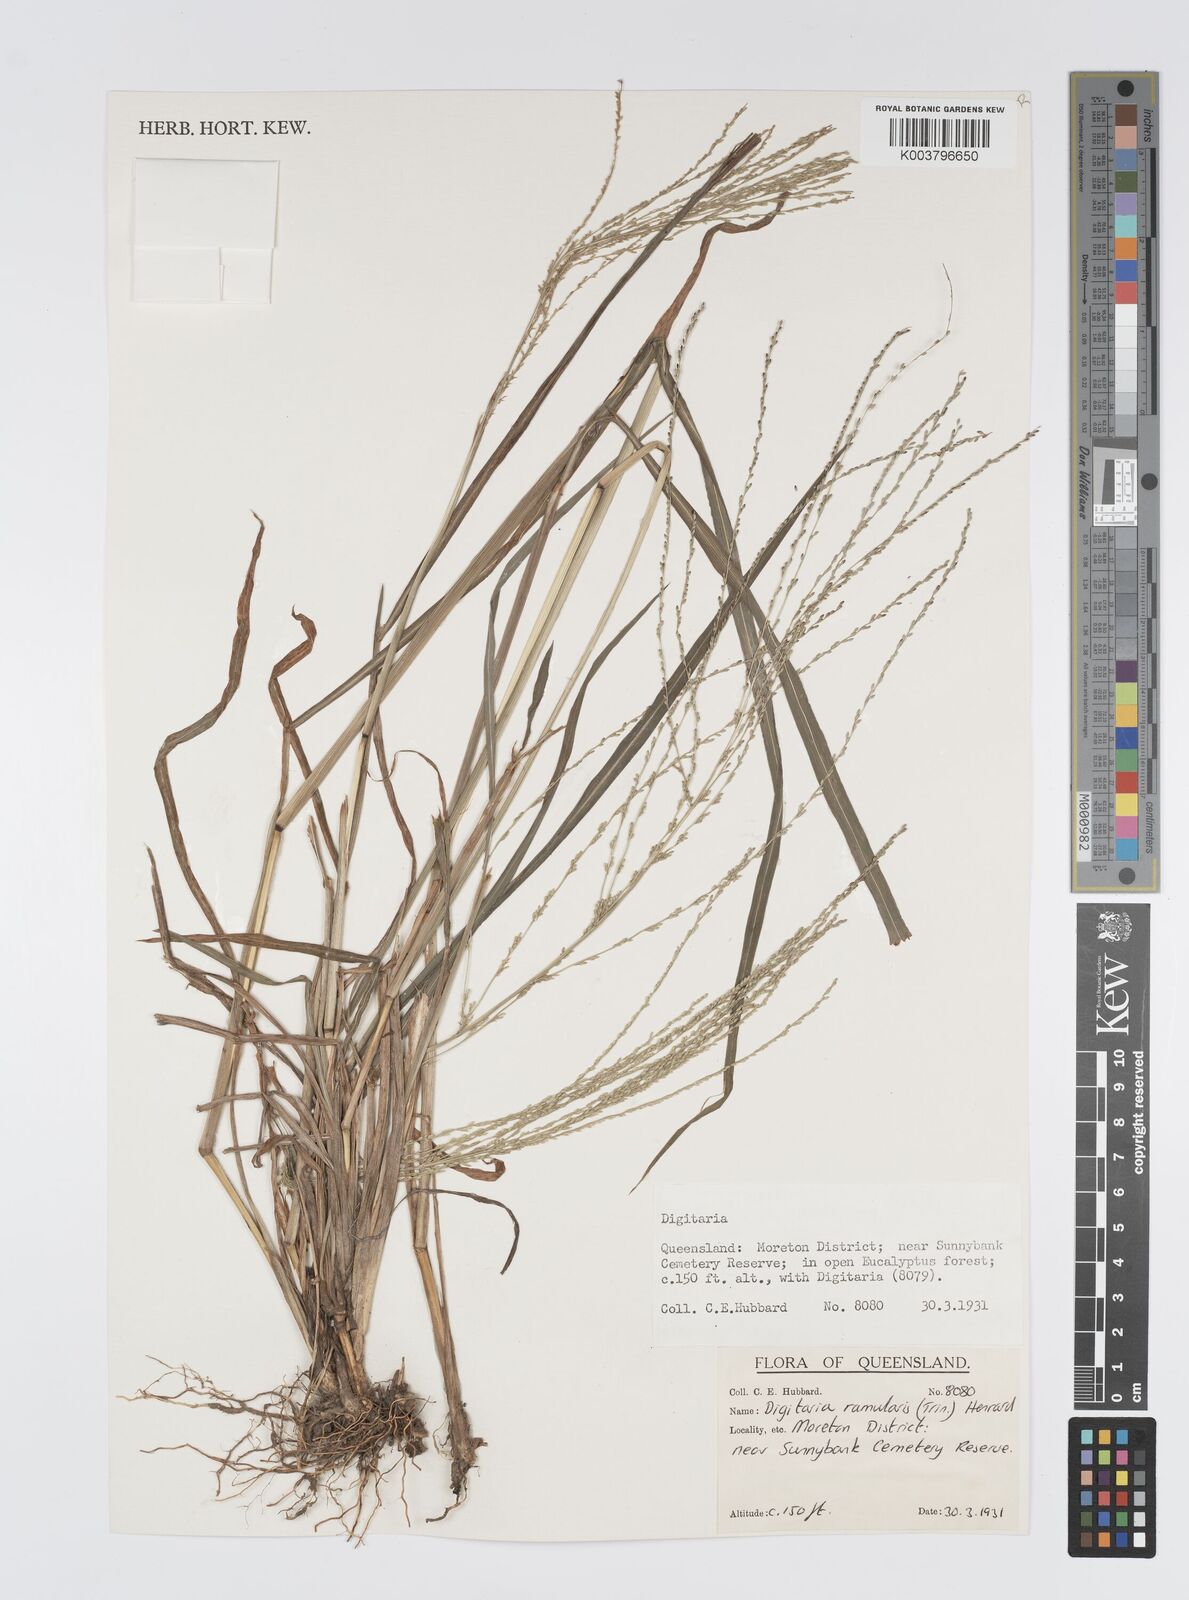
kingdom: Plantae
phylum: Tracheophyta
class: Liliopsida
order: Poales
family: Poaceae
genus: Digitaria
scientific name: Digitaria ramularis
